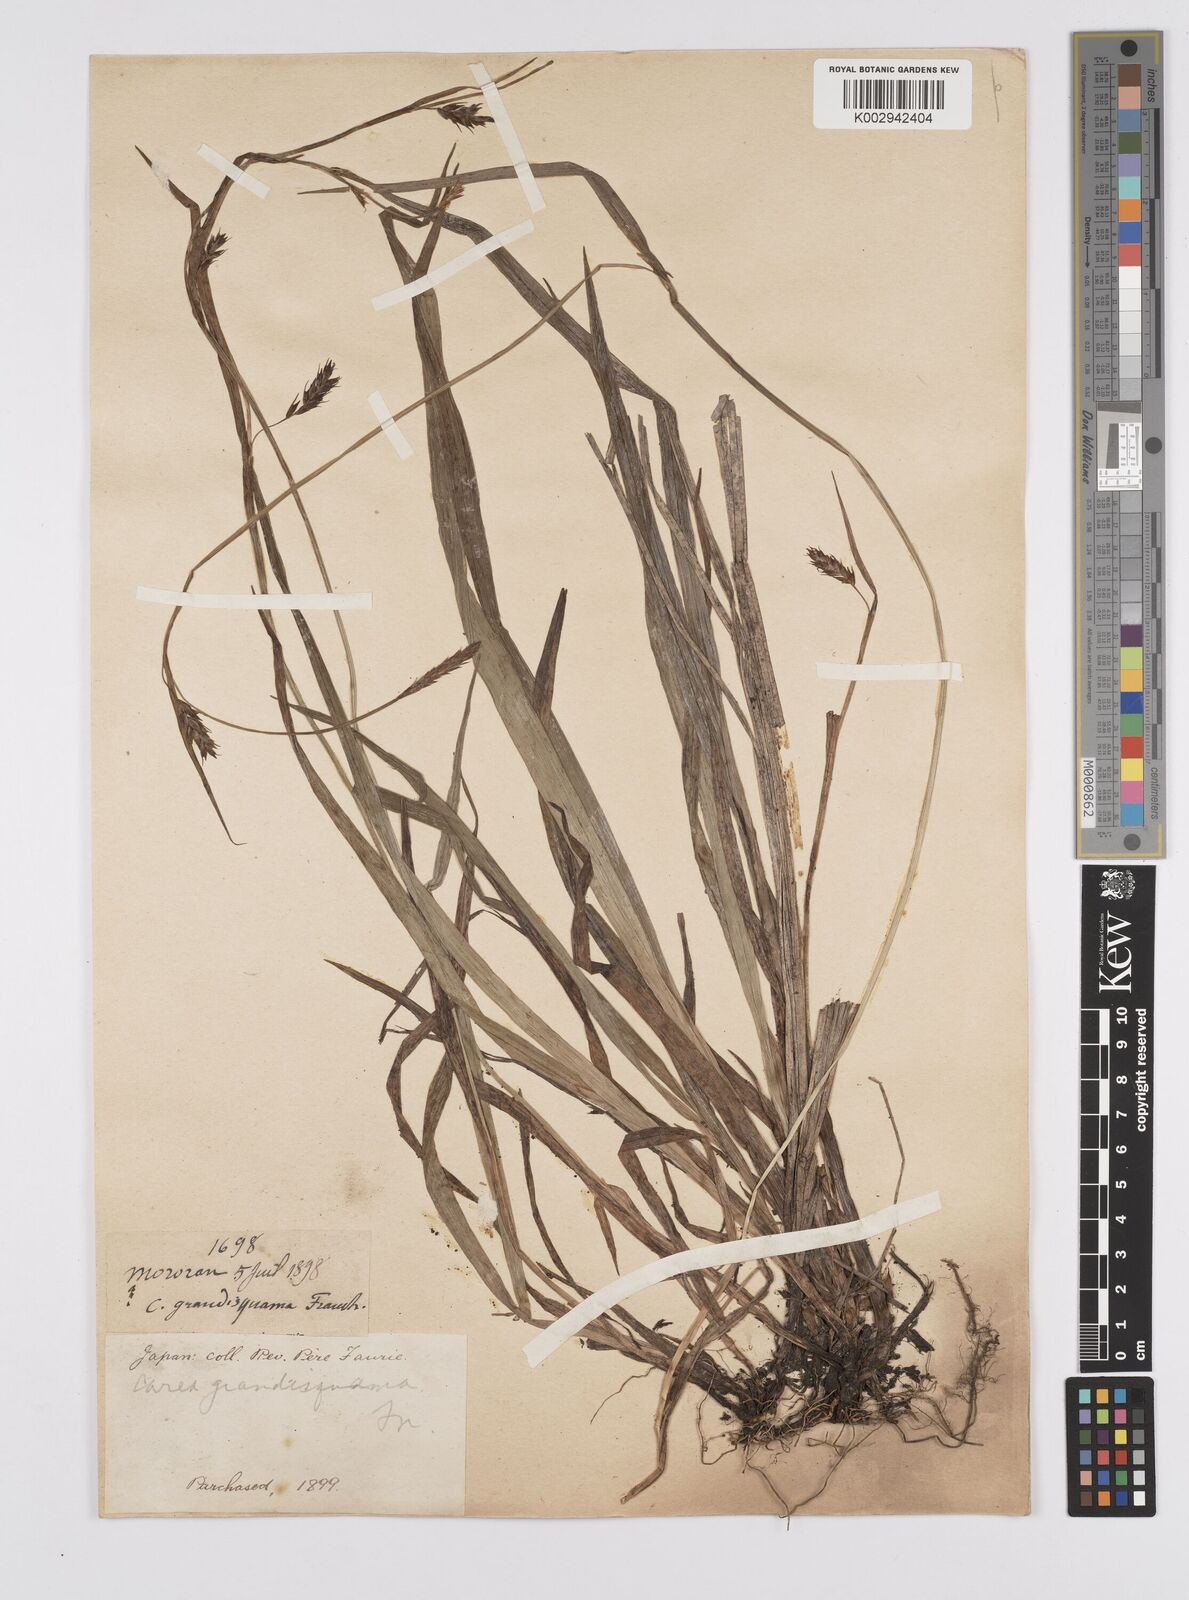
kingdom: Plantae
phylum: Tracheophyta
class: Liliopsida
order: Poales
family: Cyperaceae
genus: Carex
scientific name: Carex papulosa
